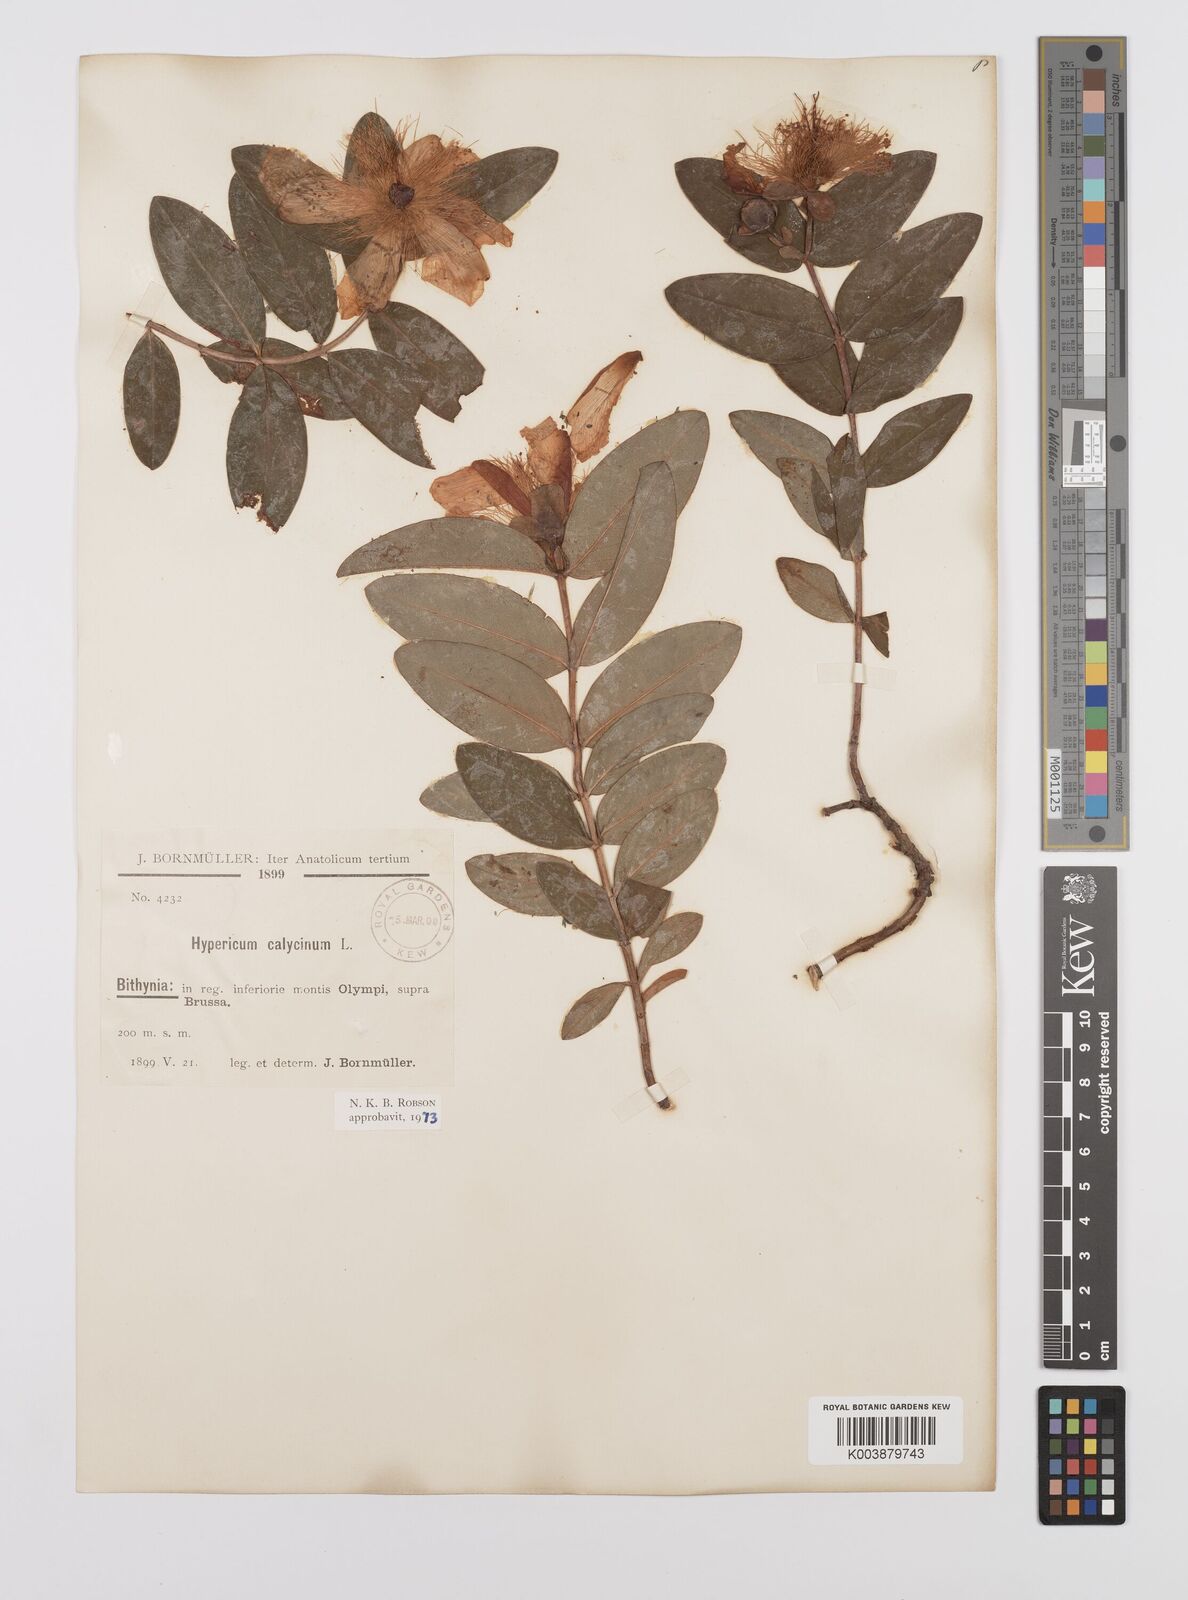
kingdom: Plantae
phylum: Tracheophyta
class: Magnoliopsida
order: Malpighiales
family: Hypericaceae
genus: Hypericum
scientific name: Hypericum calycinum
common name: Rose-of-sharon
